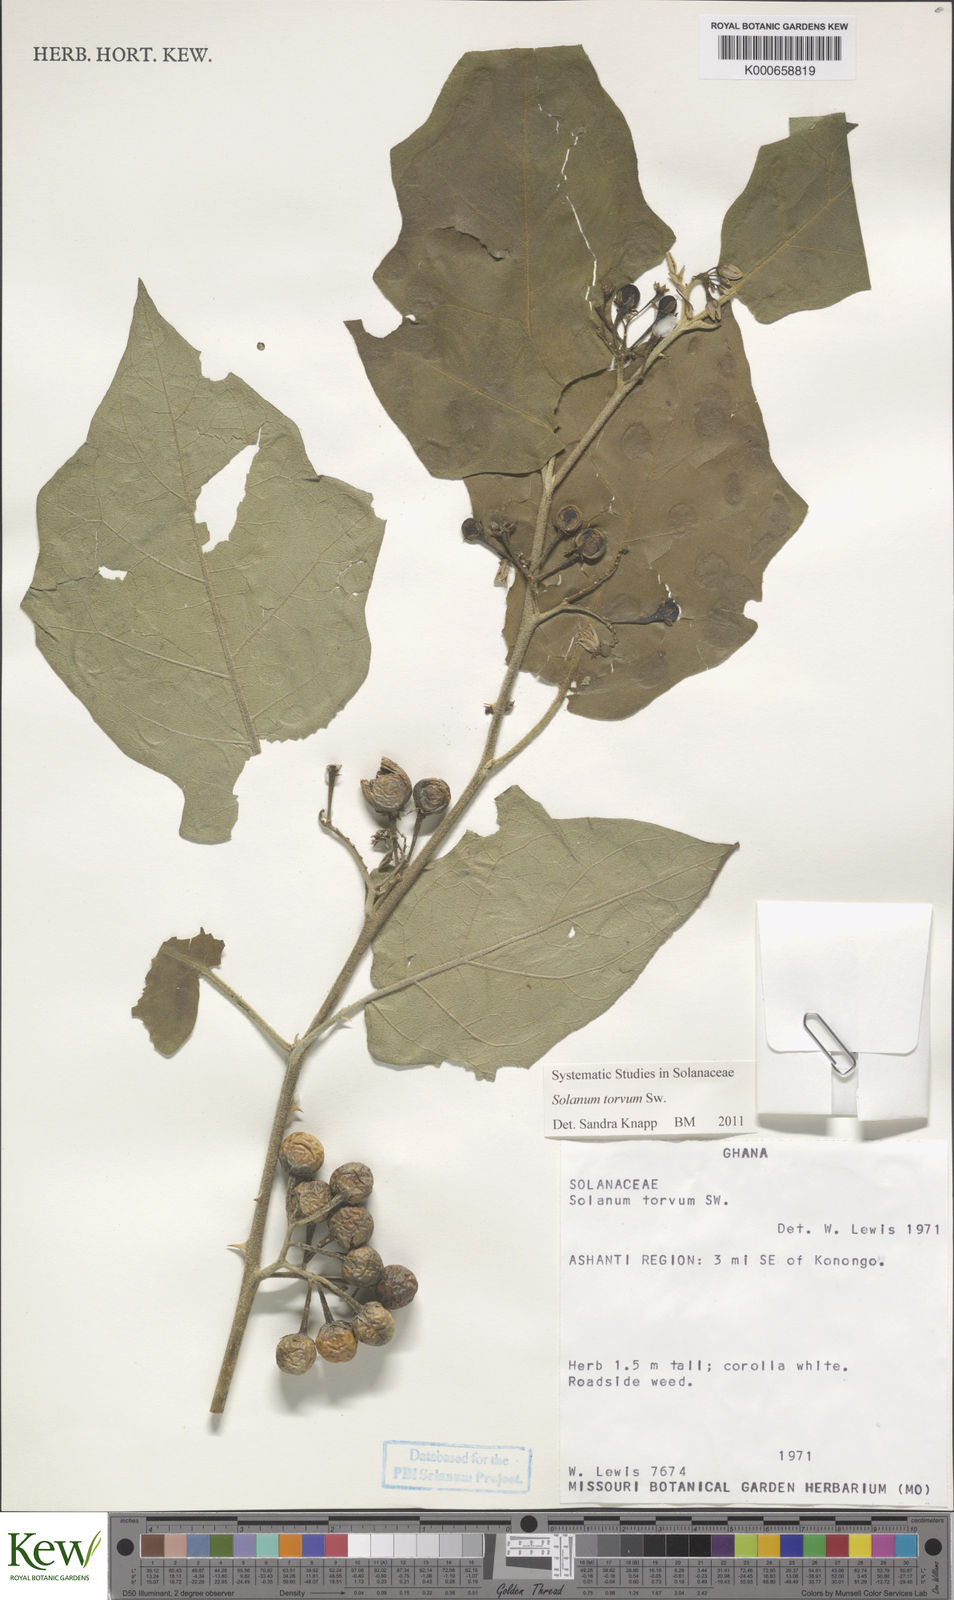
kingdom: Plantae
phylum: Tracheophyta
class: Magnoliopsida
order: Solanales
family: Solanaceae
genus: Solanum
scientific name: Solanum torvum
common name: Turkey berry
